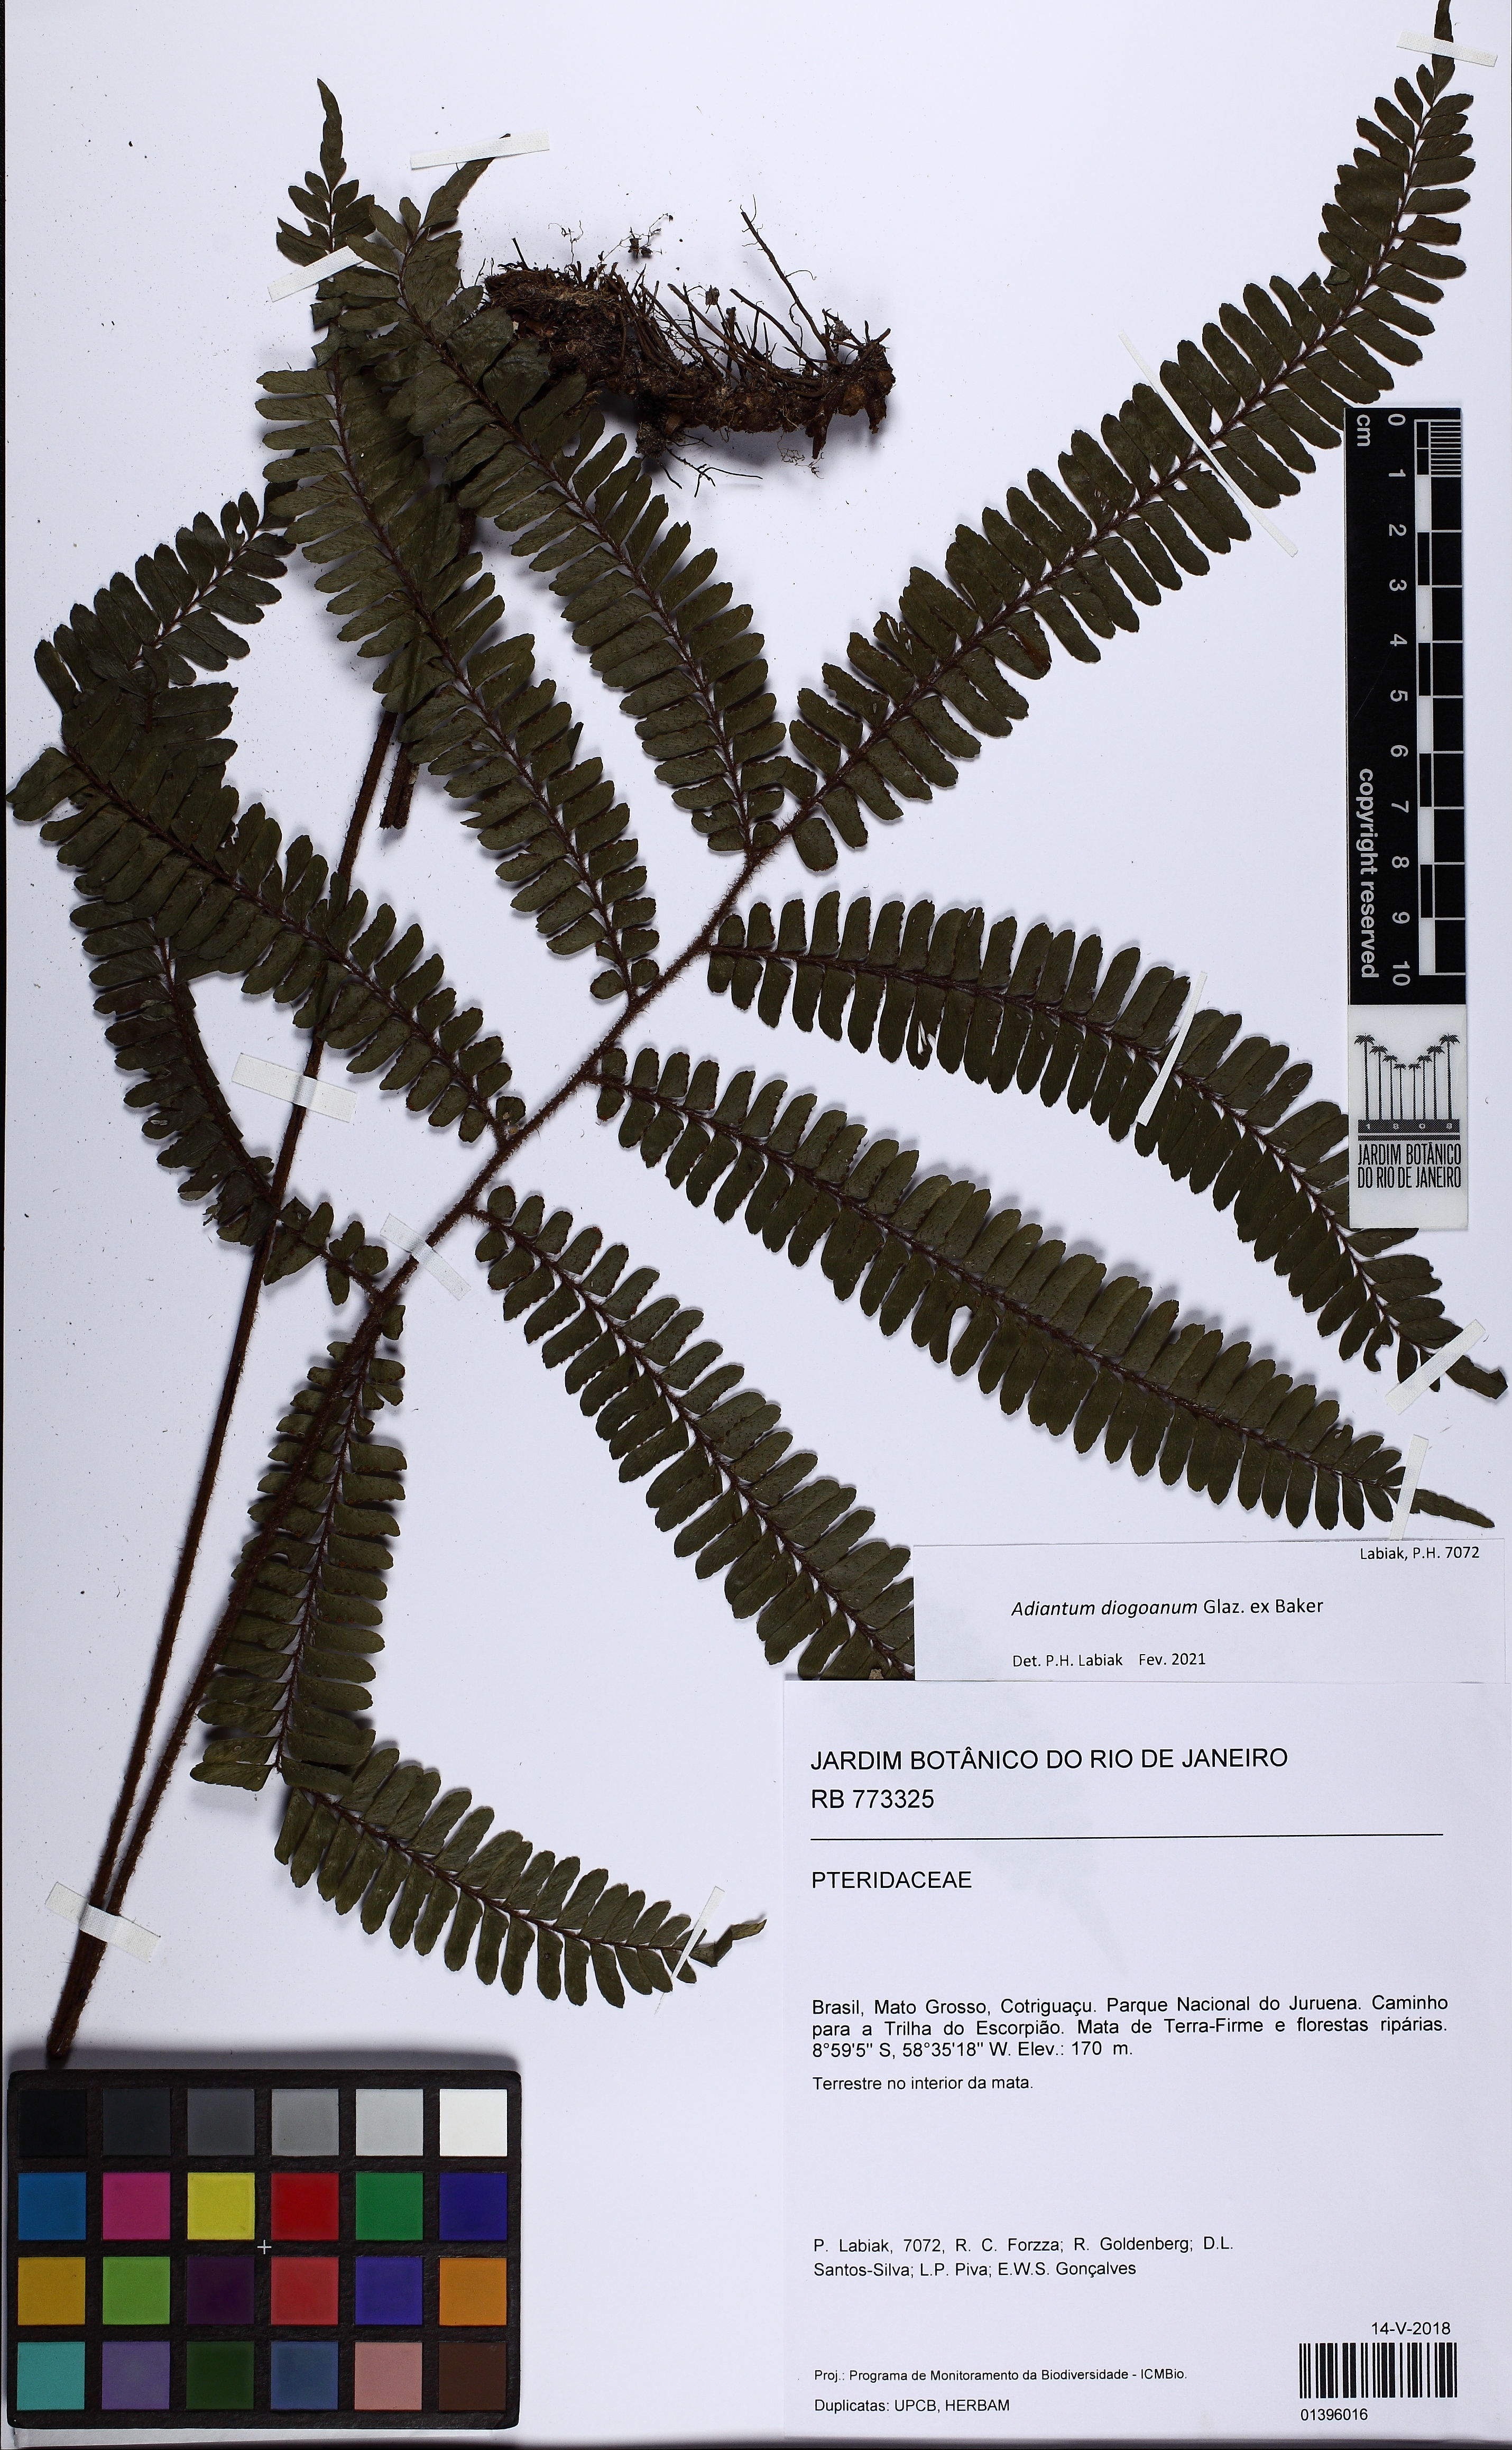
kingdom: Plantae
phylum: Tracheophyta
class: Polypodiopsida
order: Polypodiales
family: Pteridaceae
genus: Adiantum
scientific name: Adiantum diogoanum
